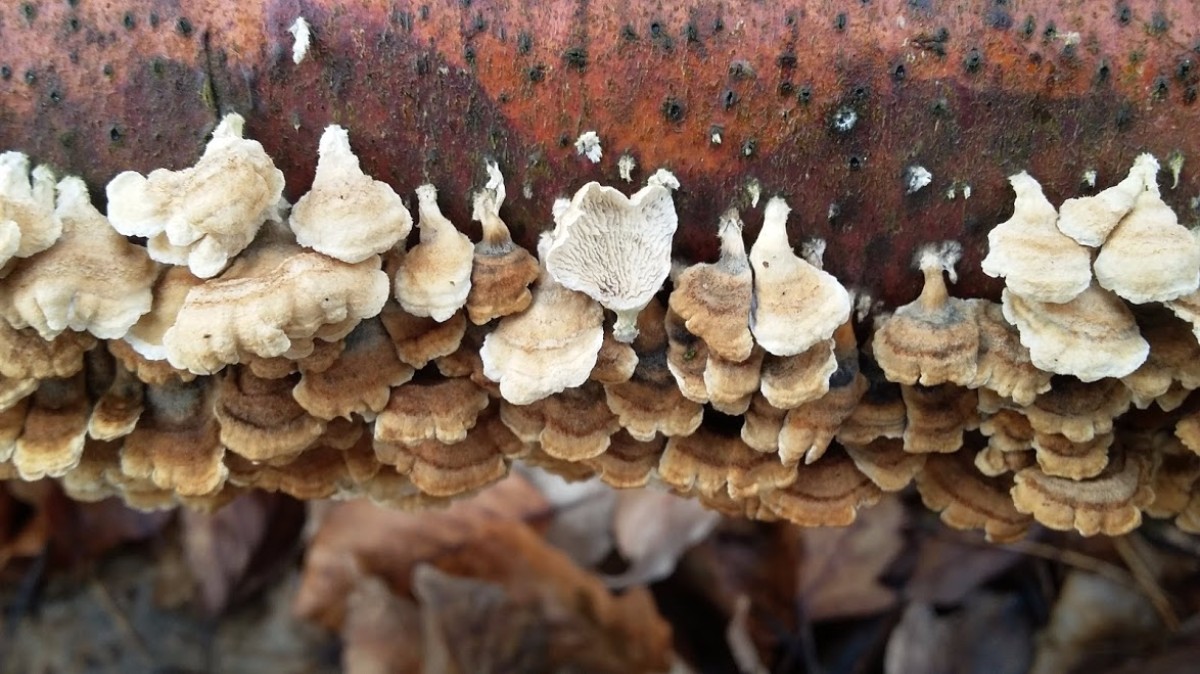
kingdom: Fungi
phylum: Basidiomycota
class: Agaricomycetes
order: Amylocorticiales
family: Amylocorticiaceae
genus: Plicaturopsis
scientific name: Plicaturopsis crispa
